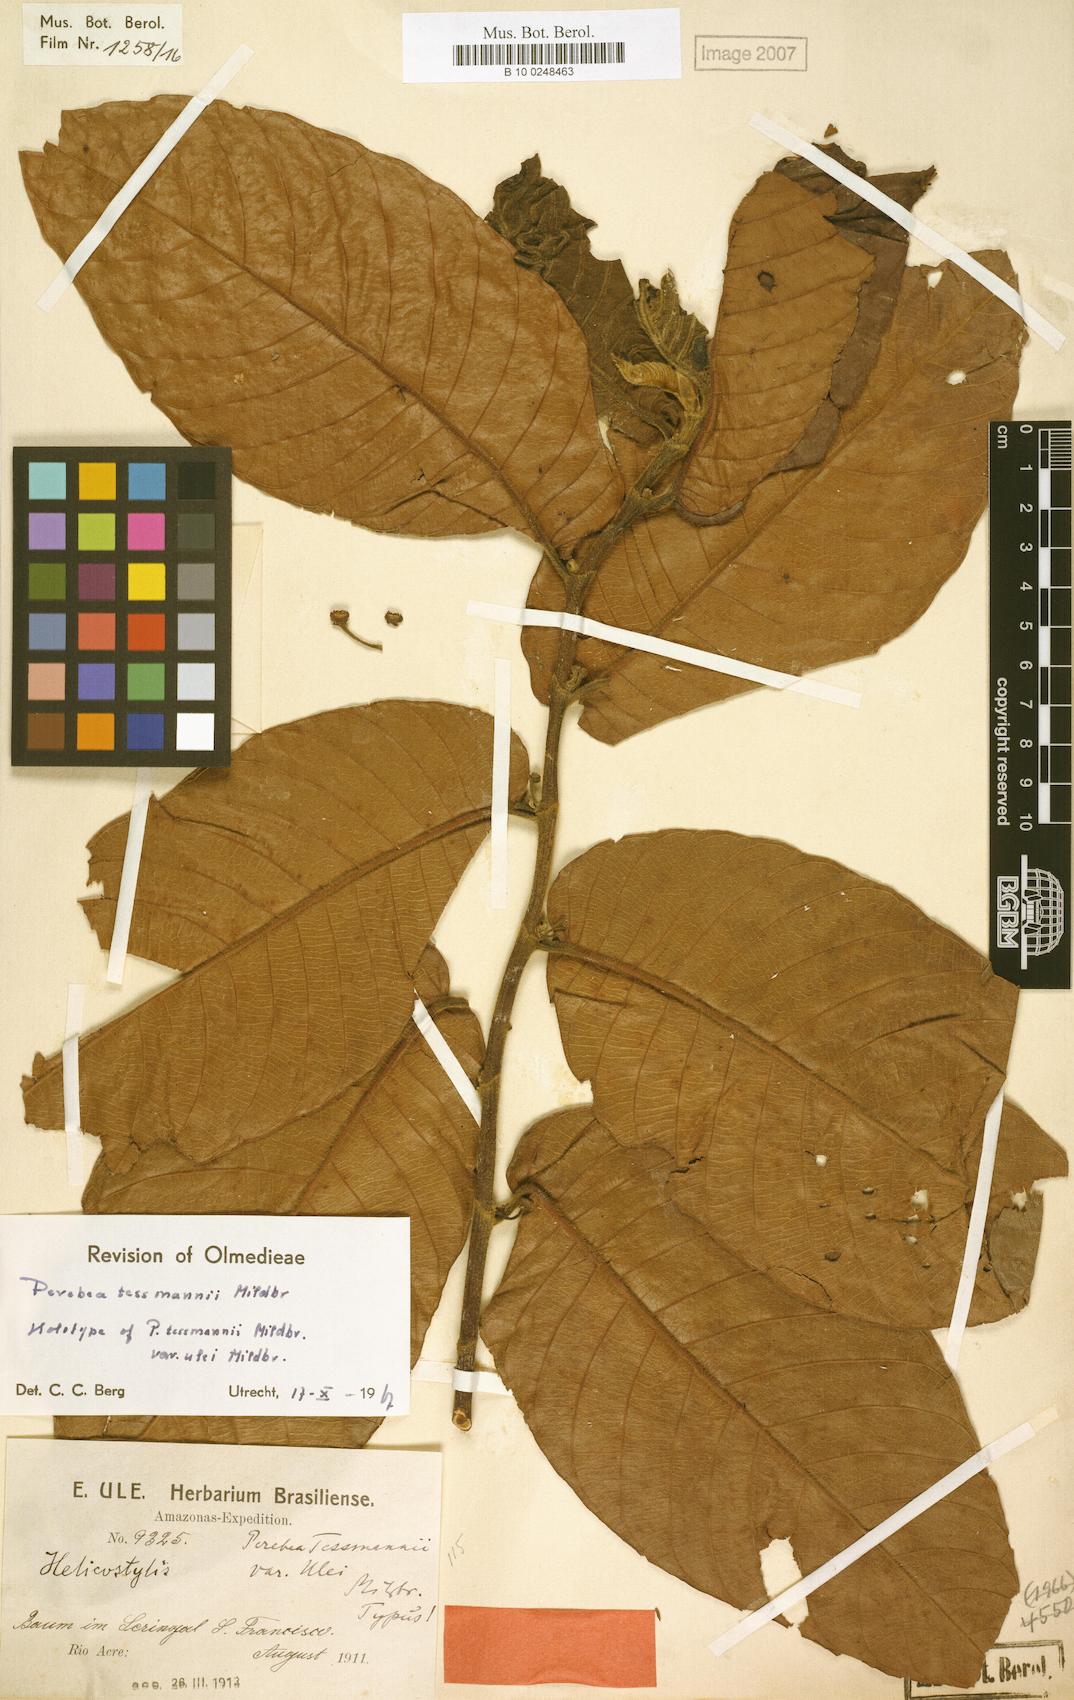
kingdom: Plantae
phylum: Tracheophyta
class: Magnoliopsida
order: Rosales
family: Moraceae
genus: Perebea
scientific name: Perebea tessmannii
